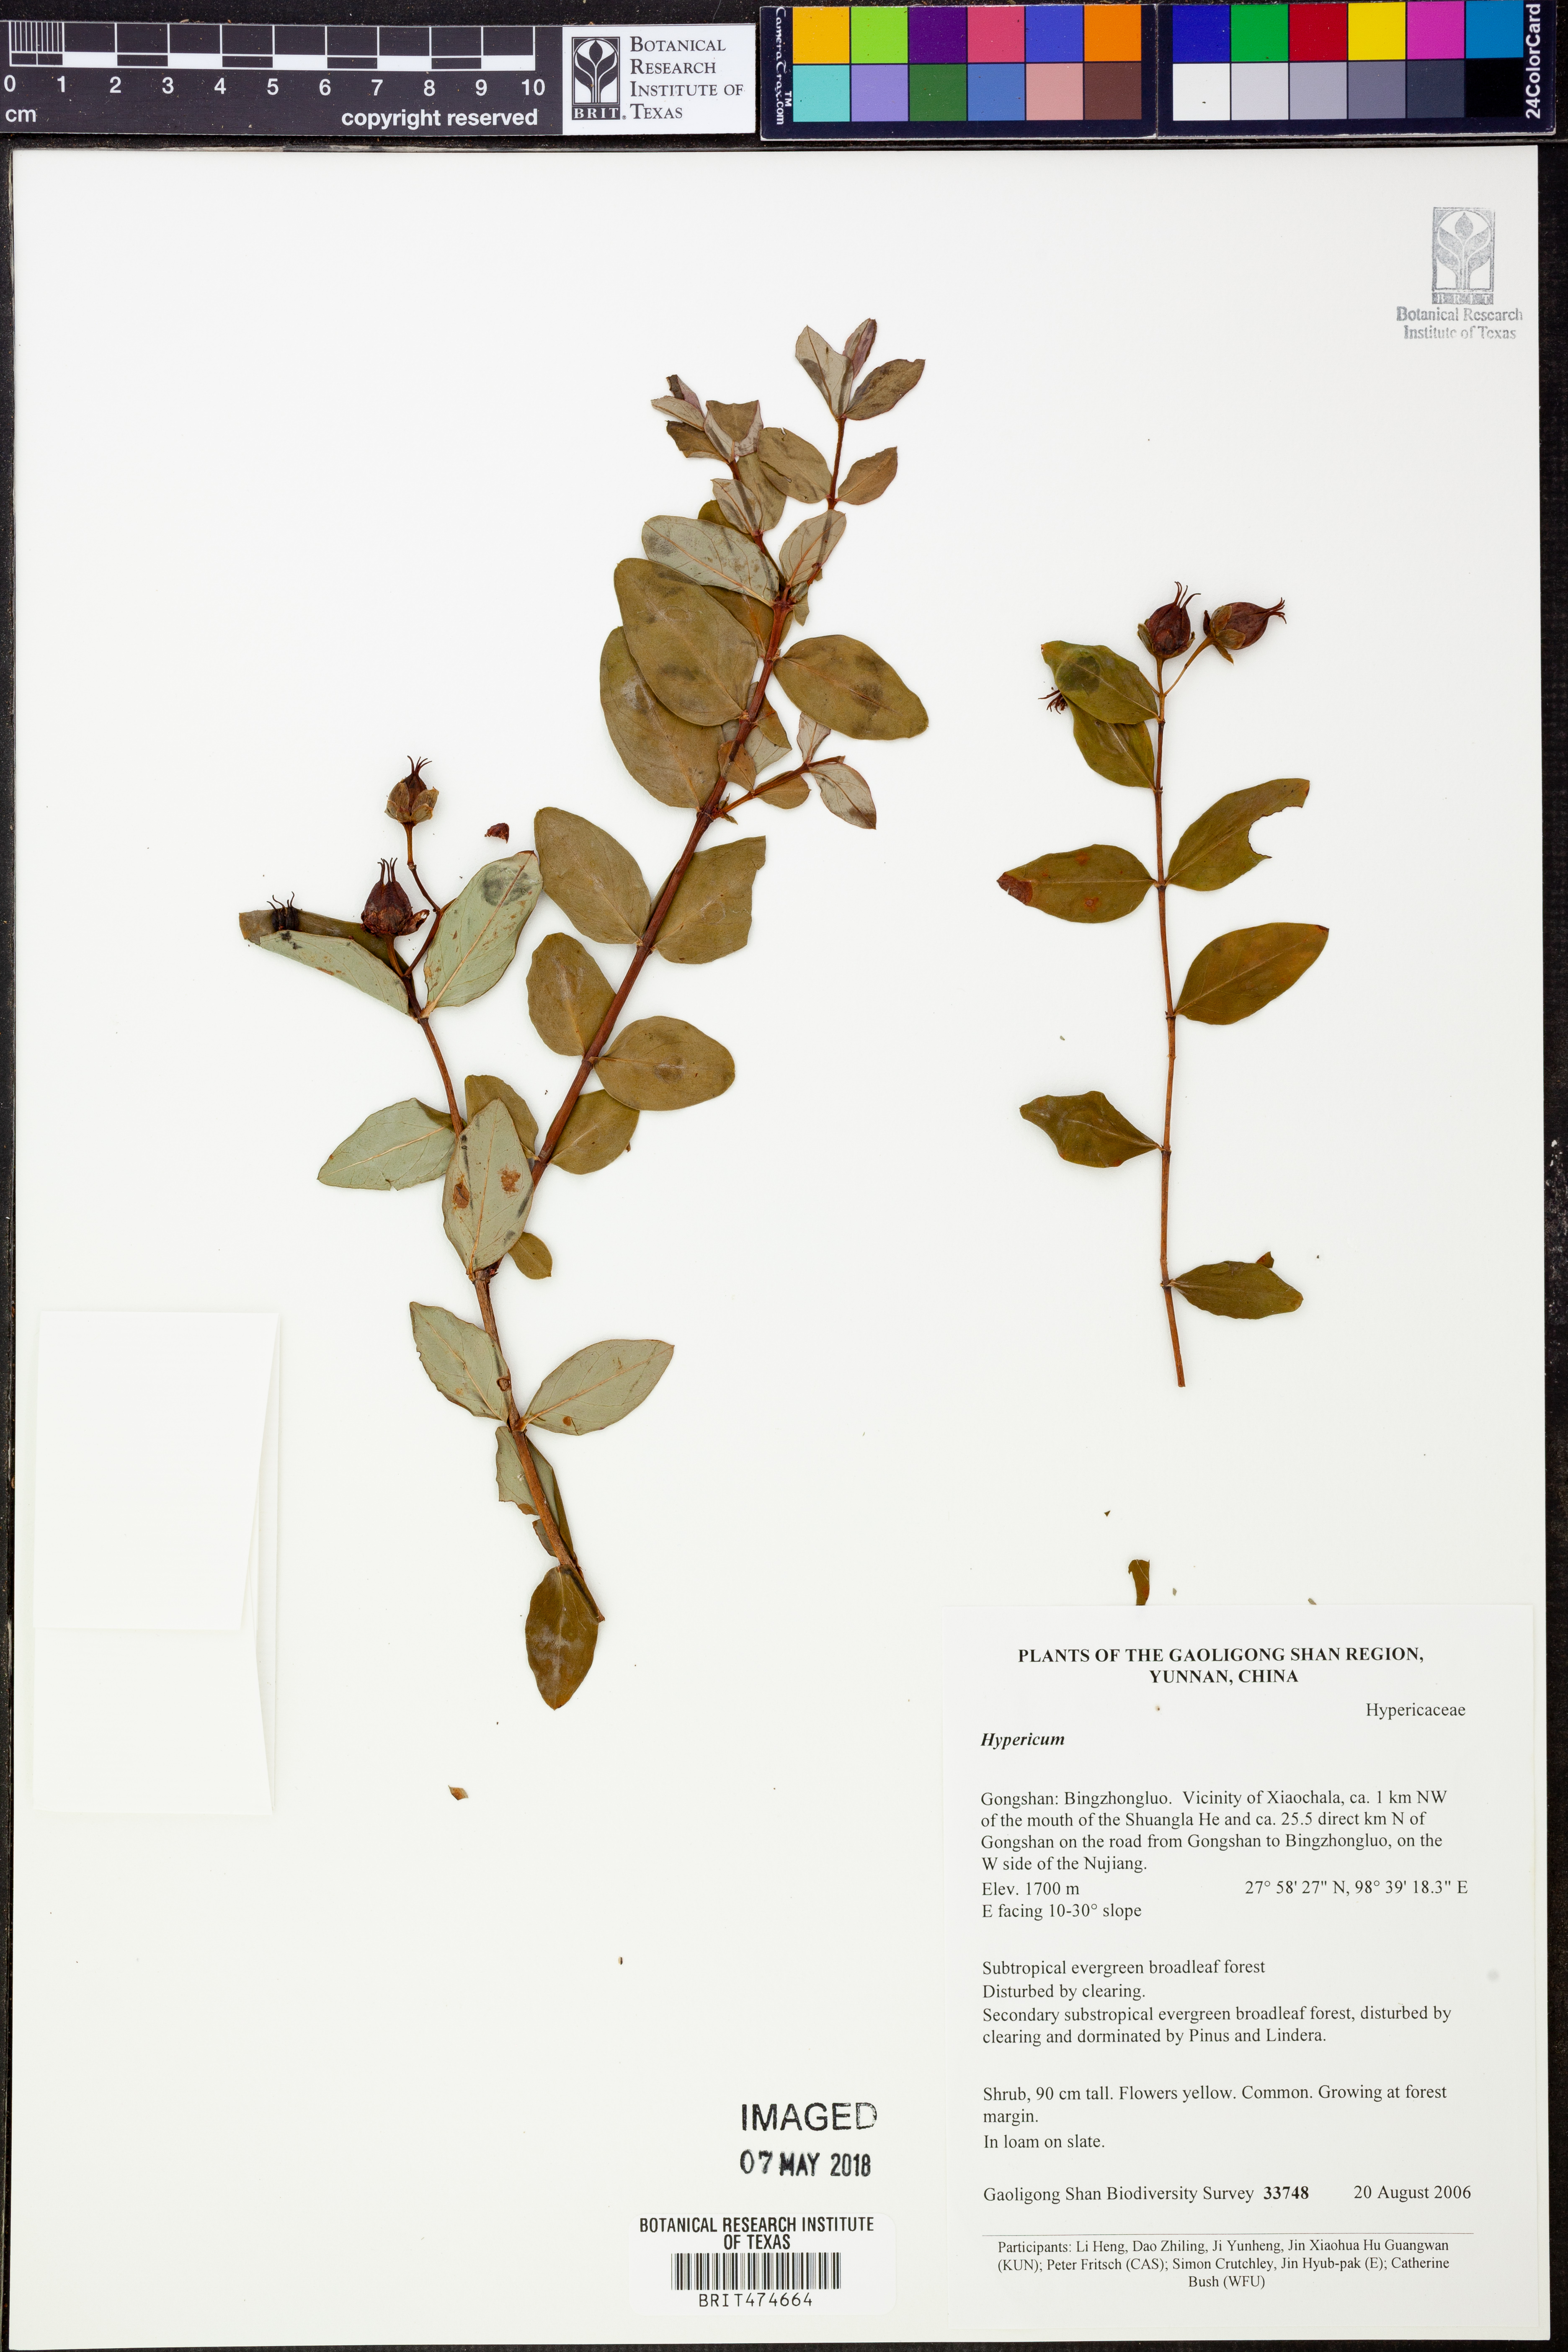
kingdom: Plantae
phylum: Tracheophyta
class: Magnoliopsida
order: Malpighiales
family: Hypericaceae
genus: Hypericum
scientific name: Hypericum
